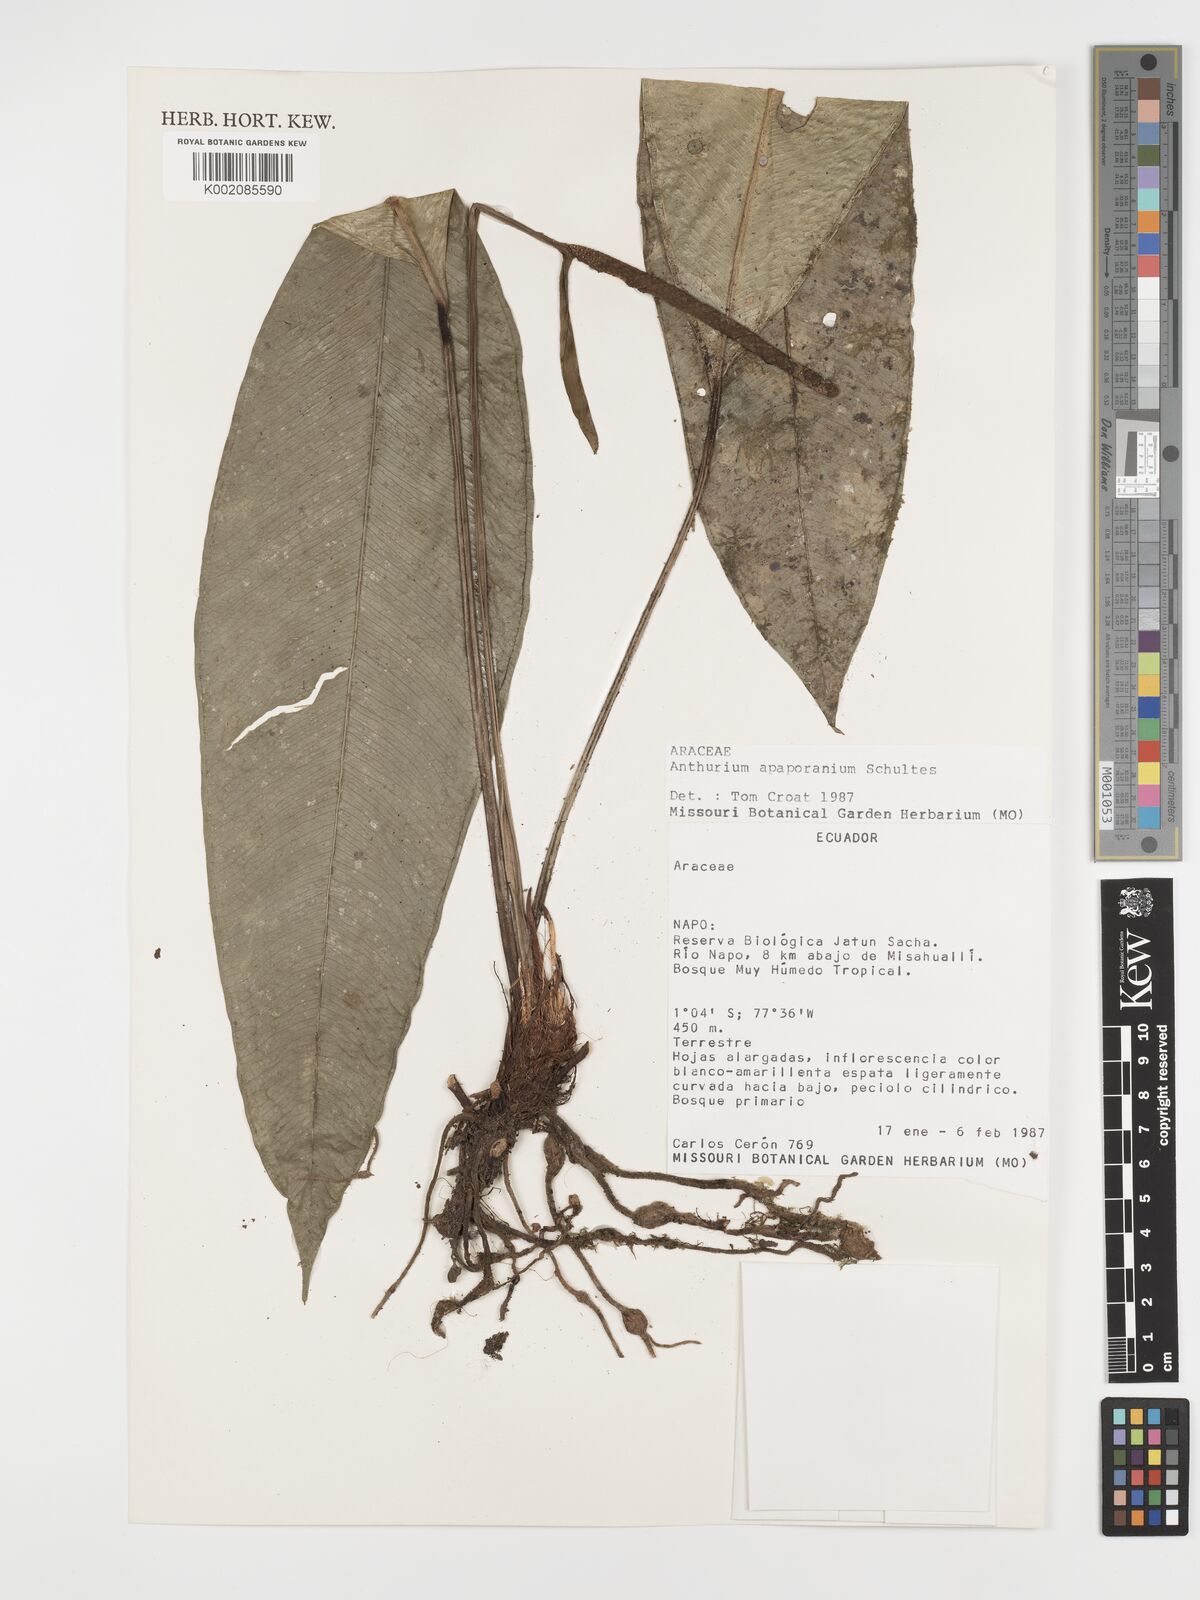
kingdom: Plantae
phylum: Tracheophyta
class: Liliopsida
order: Alismatales
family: Araceae
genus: Anthurium
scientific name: Anthurium apaporanum
